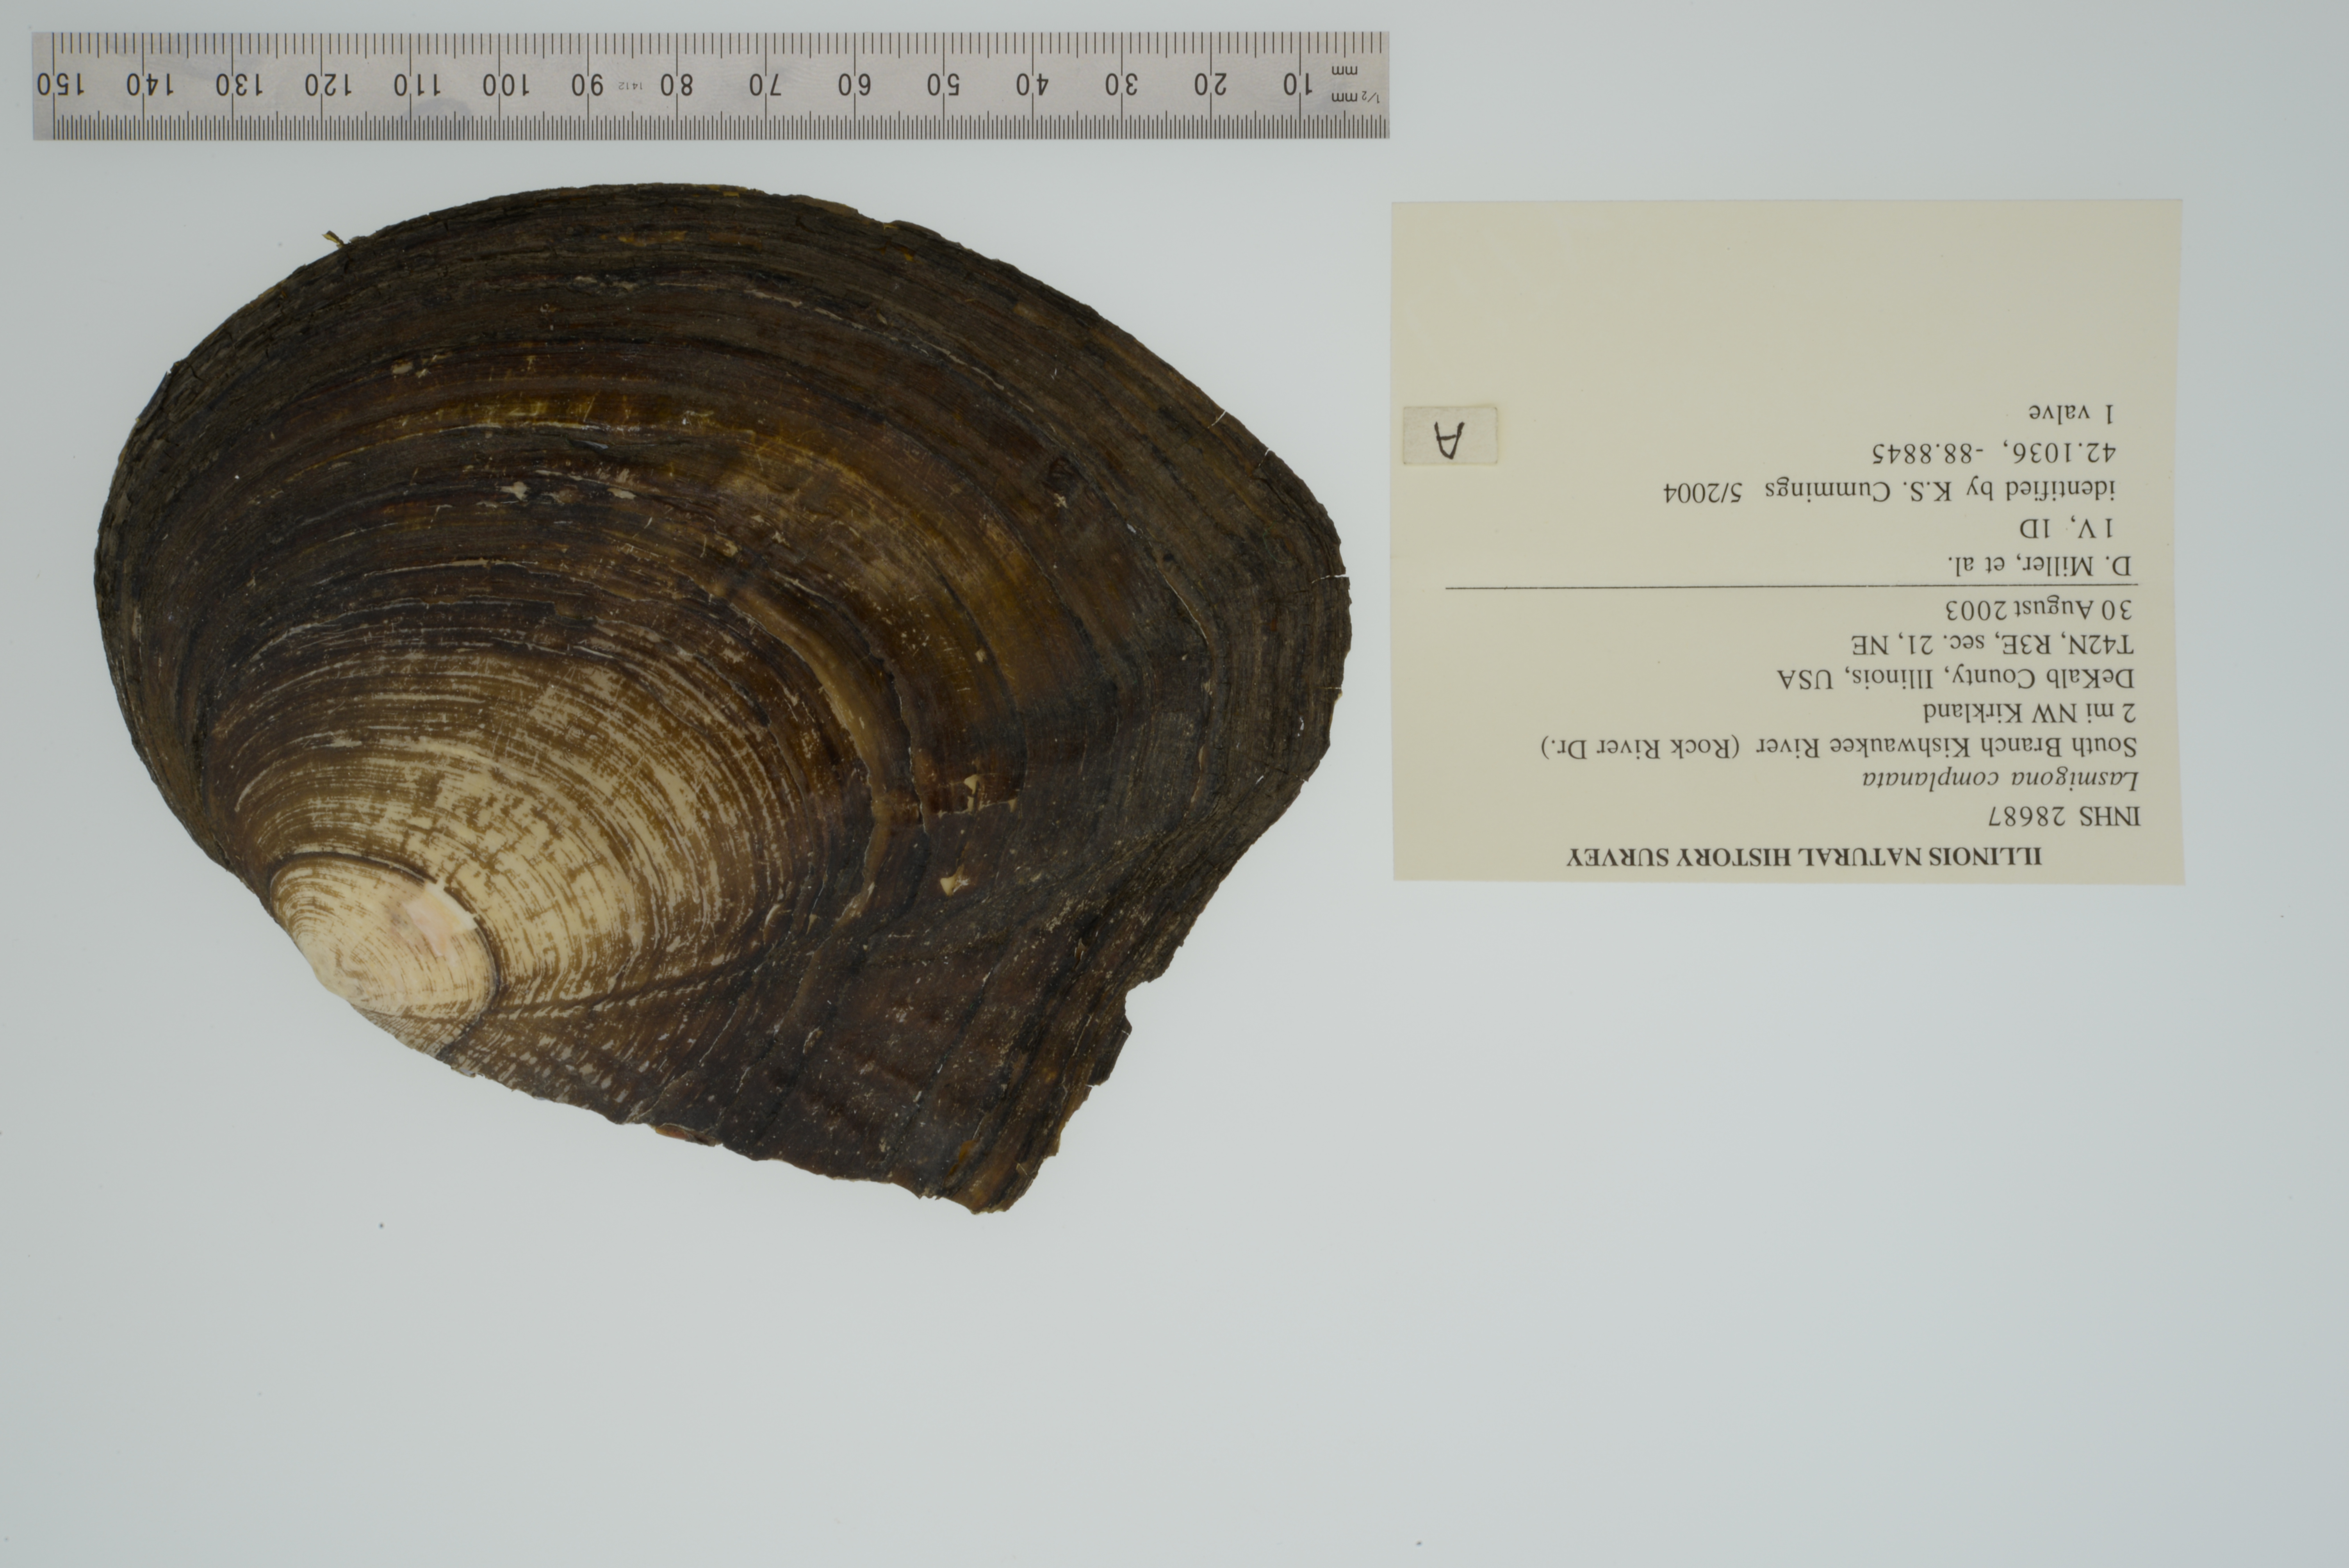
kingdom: Animalia
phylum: Mollusca
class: Bivalvia
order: Unionida
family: Unionidae
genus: Lasmigona
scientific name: Lasmigona complanata
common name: White heelsplitter
